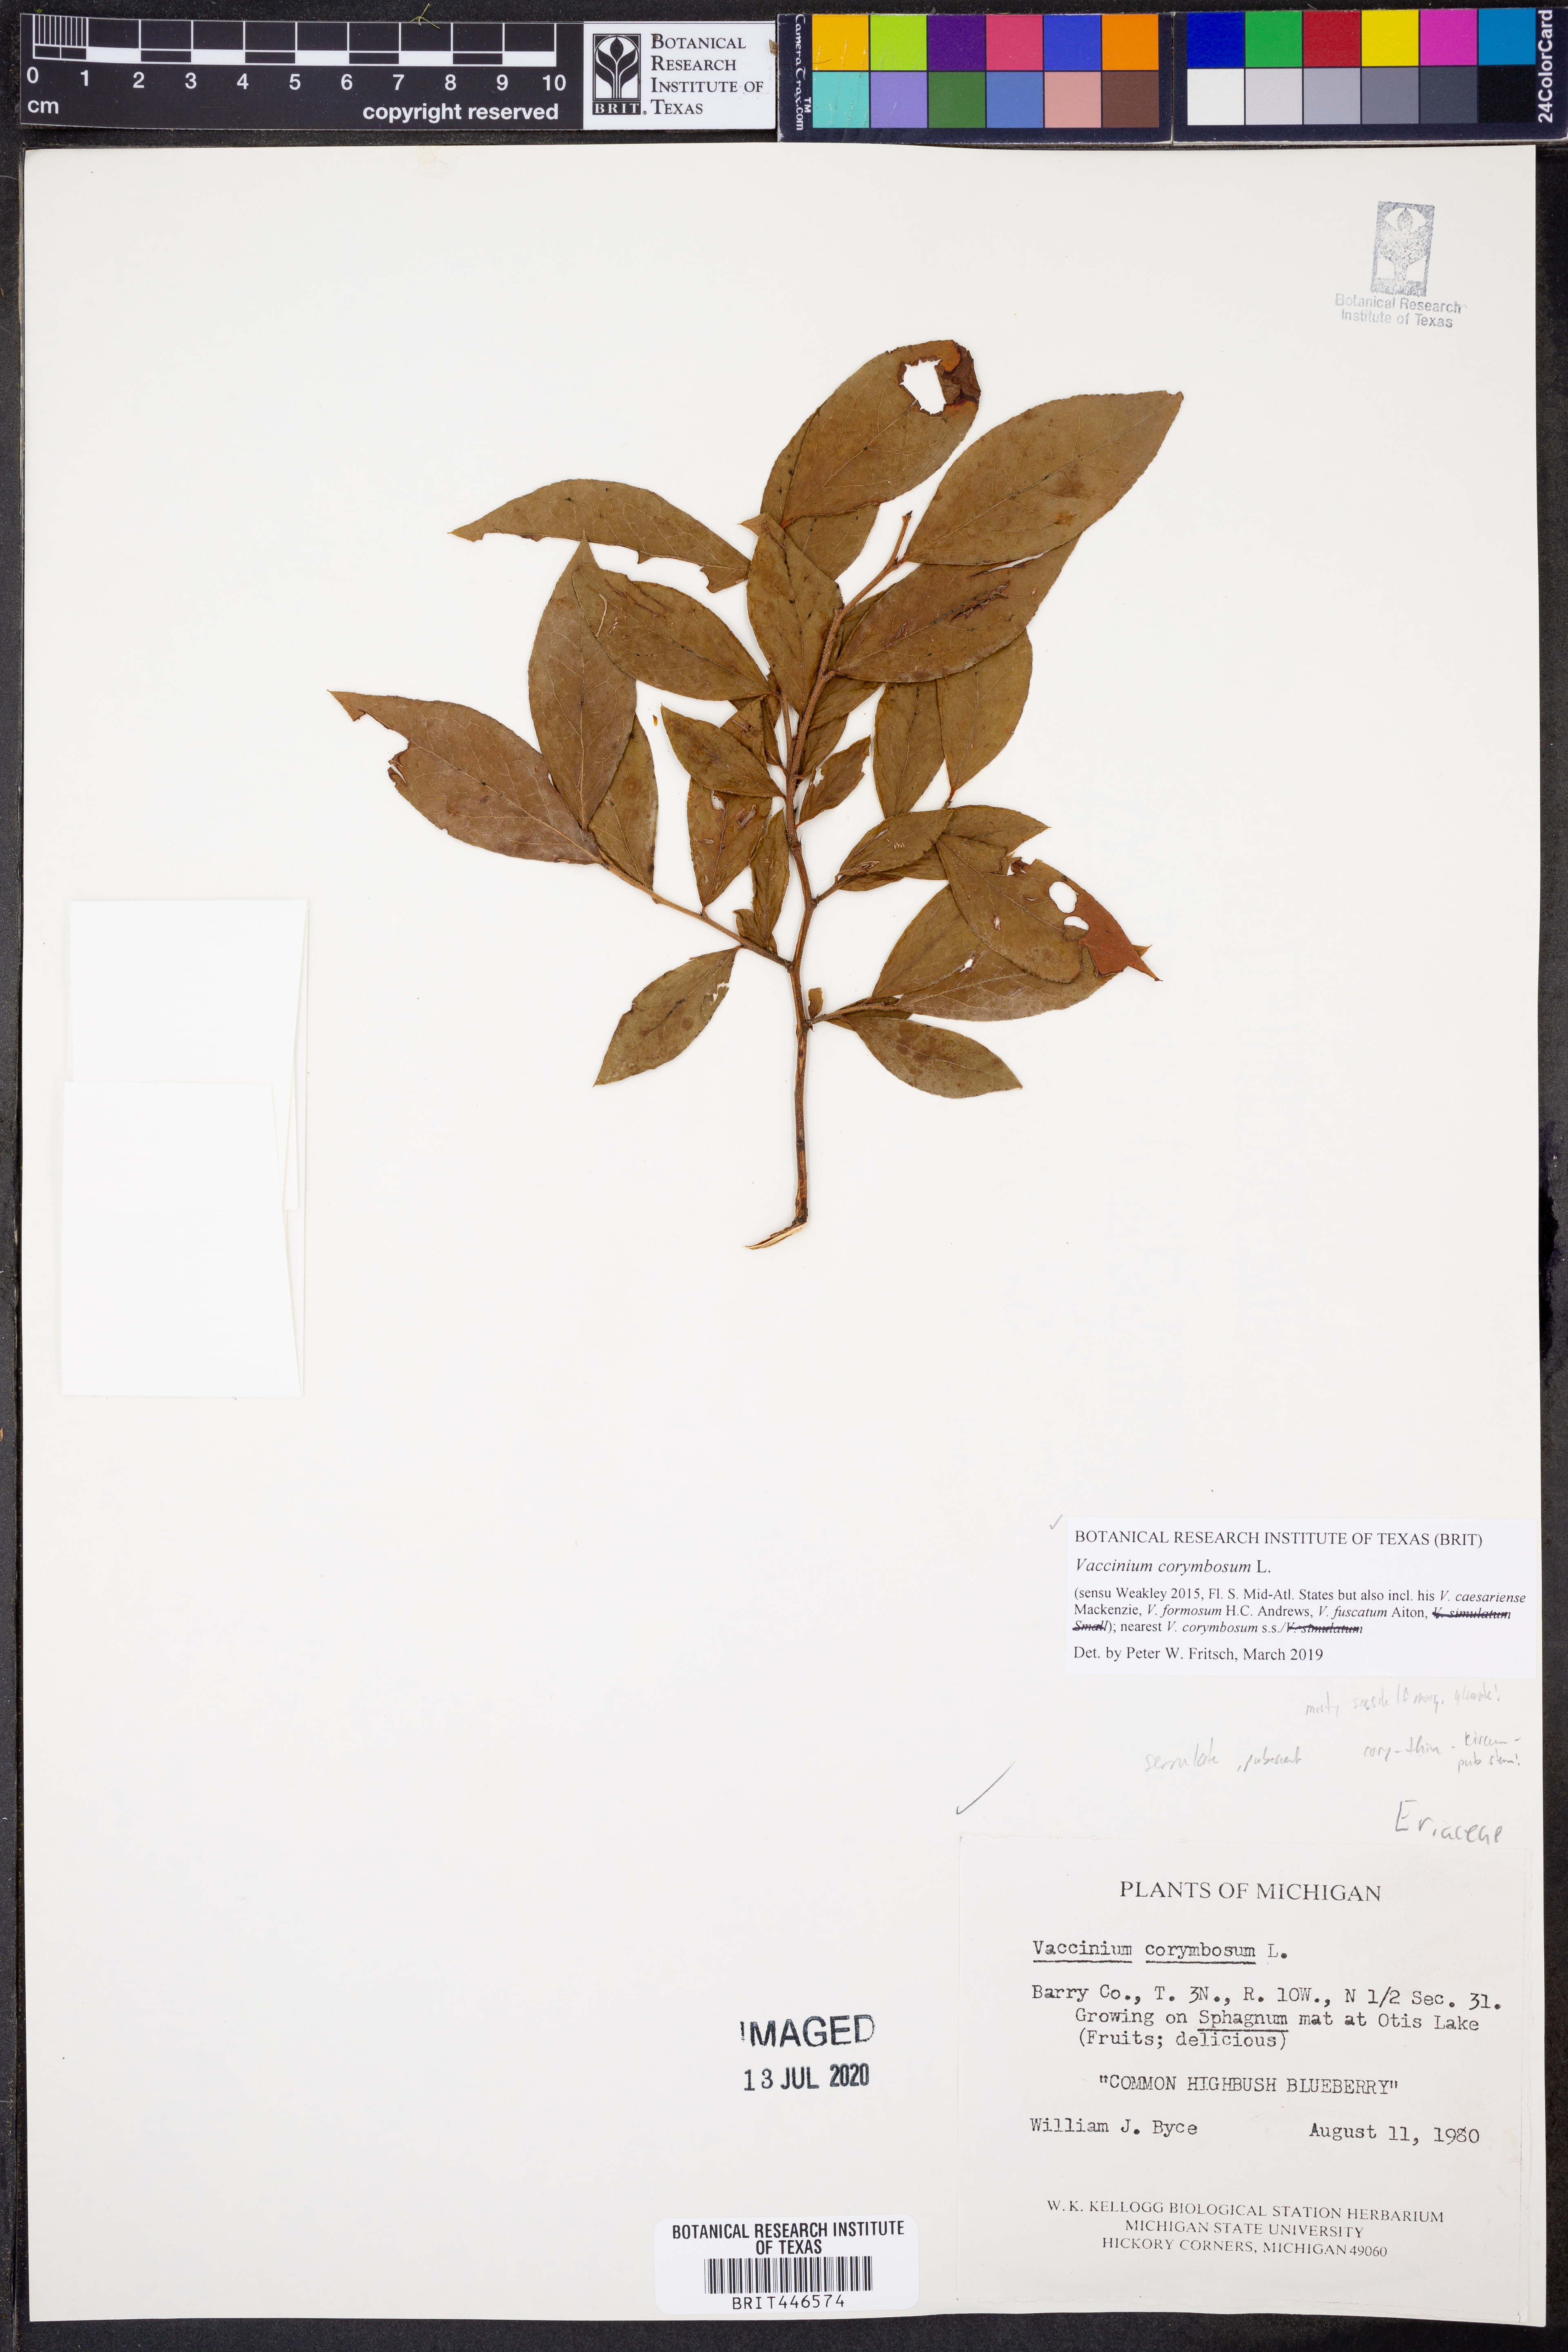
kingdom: Plantae
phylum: Tracheophyta
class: Magnoliopsida
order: Ericales
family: Ericaceae
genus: Vaccinium
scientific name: Vaccinium corymbosum
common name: Blueberry
